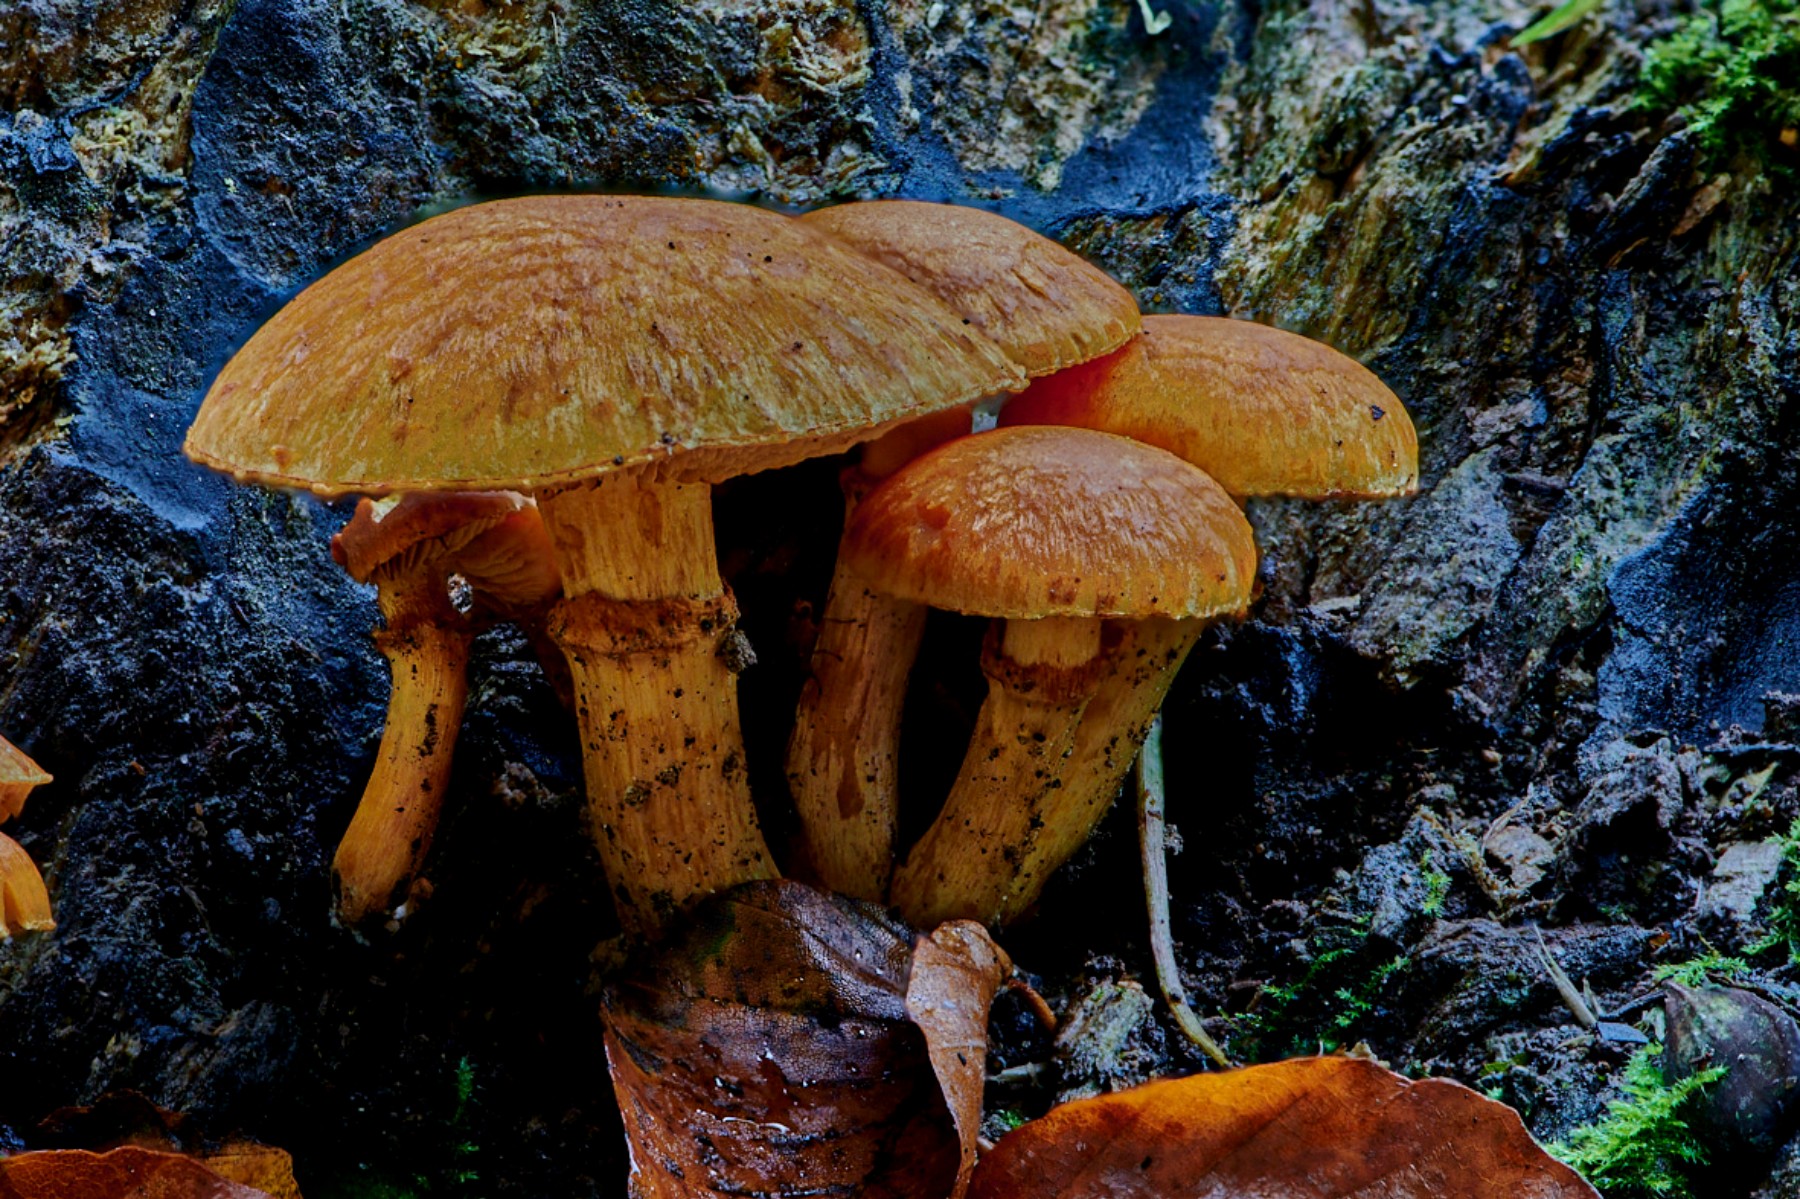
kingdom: Fungi
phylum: Basidiomycota
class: Agaricomycetes
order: Agaricales
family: Hymenogastraceae
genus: Gymnopilus
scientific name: Gymnopilus spectabilis
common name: fibret flammehat
